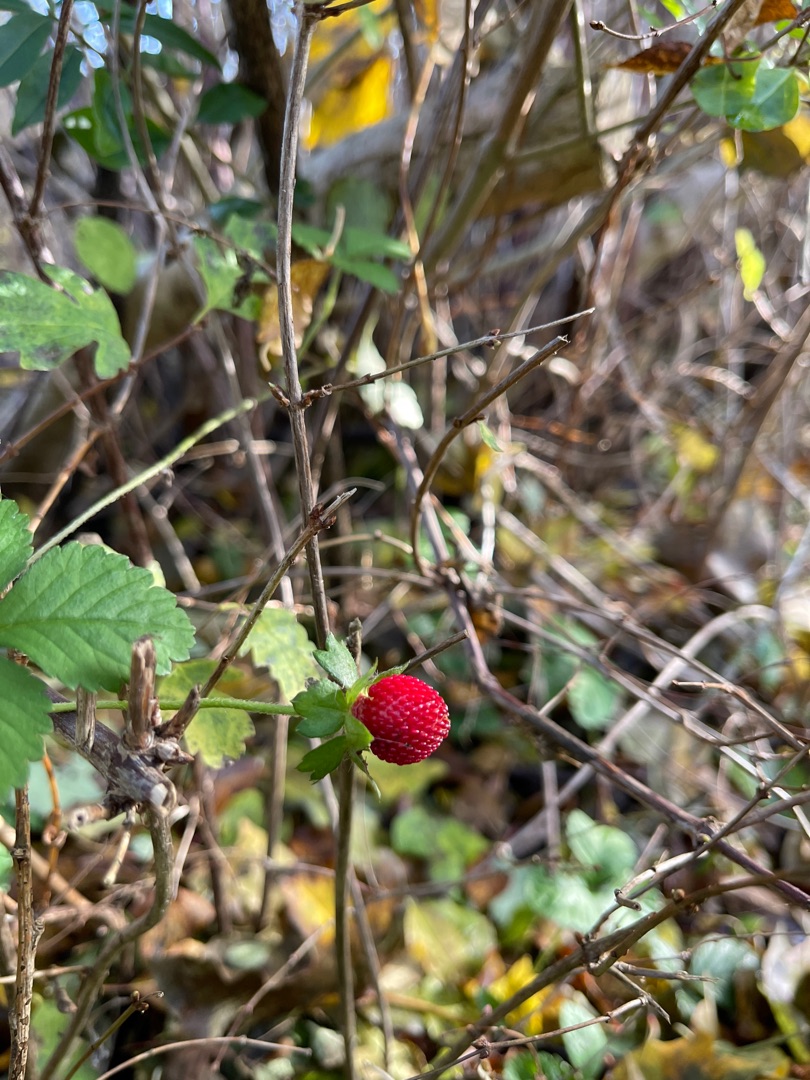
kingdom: Plantae
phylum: Tracheophyta
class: Magnoliopsida
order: Rosales
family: Rosaceae
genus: Potentilla
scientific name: Potentilla indica
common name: Indisk jordbær
